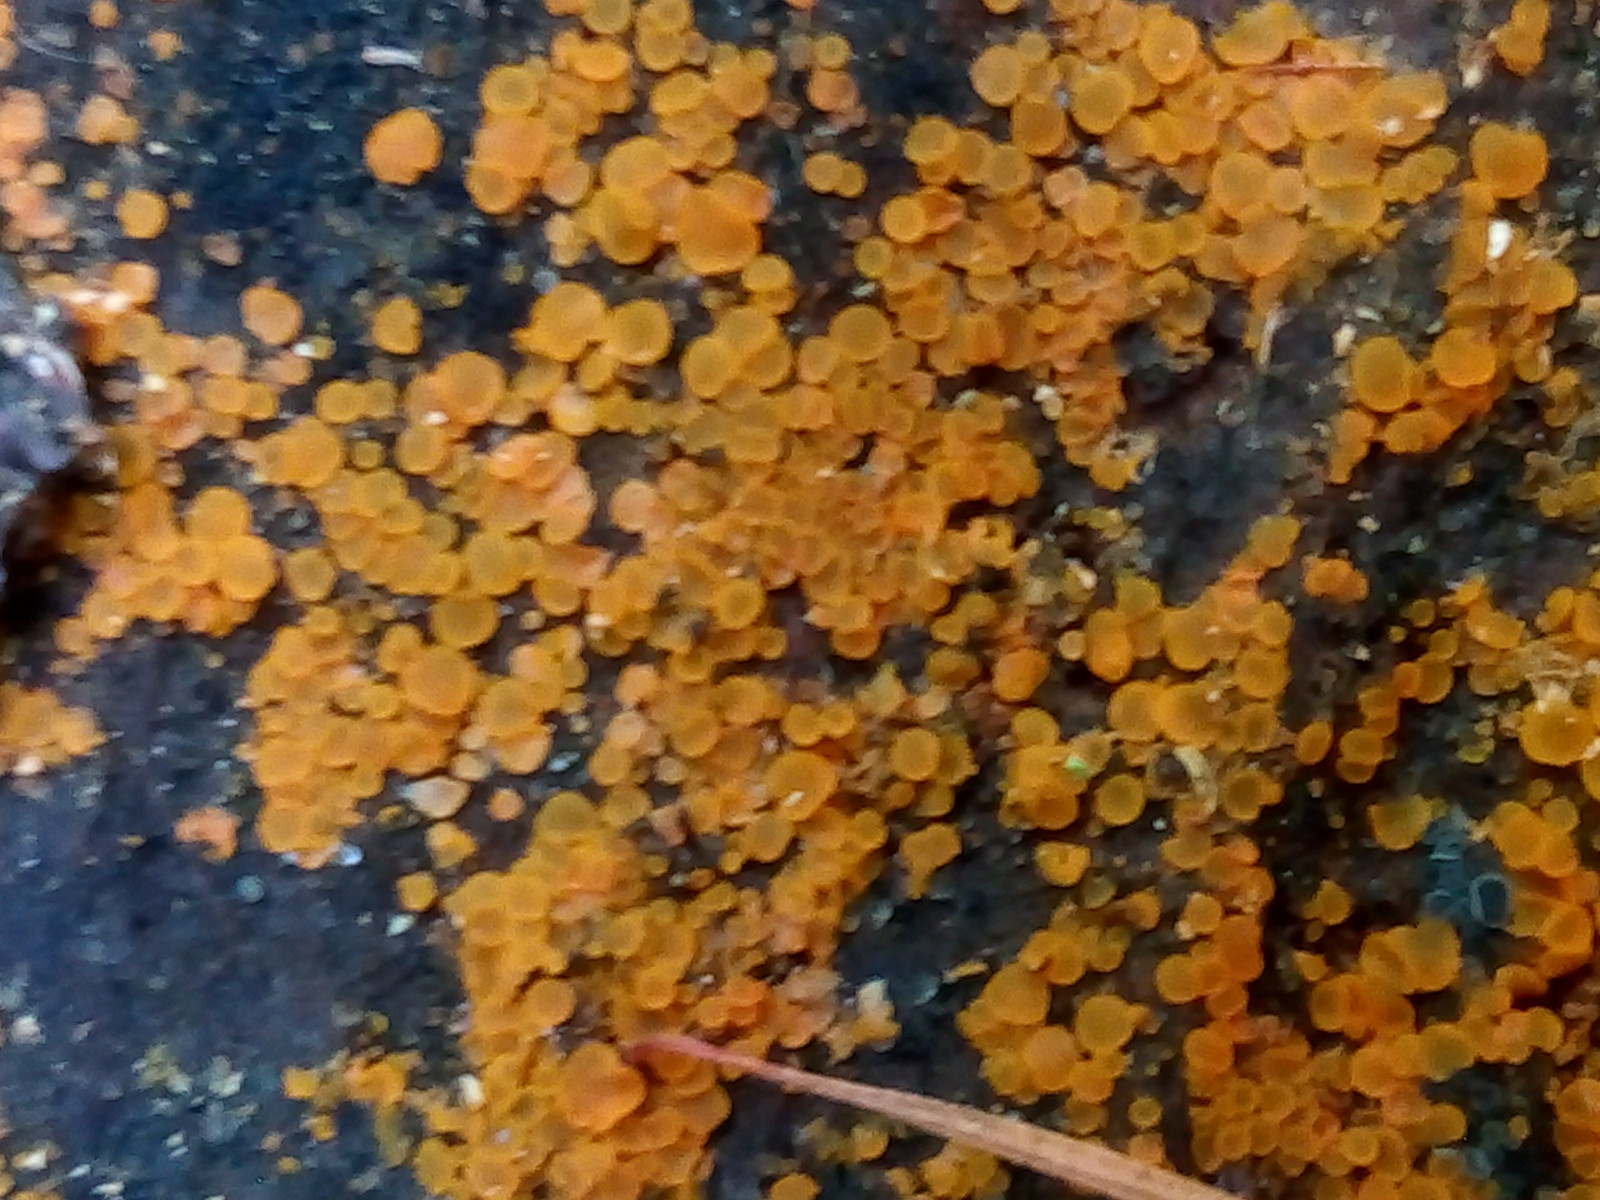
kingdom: Fungi
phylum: Ascomycota
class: Orbiliomycetes
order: Orbiliales
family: Orbiliaceae
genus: Orbilia
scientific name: Orbilia xanthostigma
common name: krumsporet voksskive
